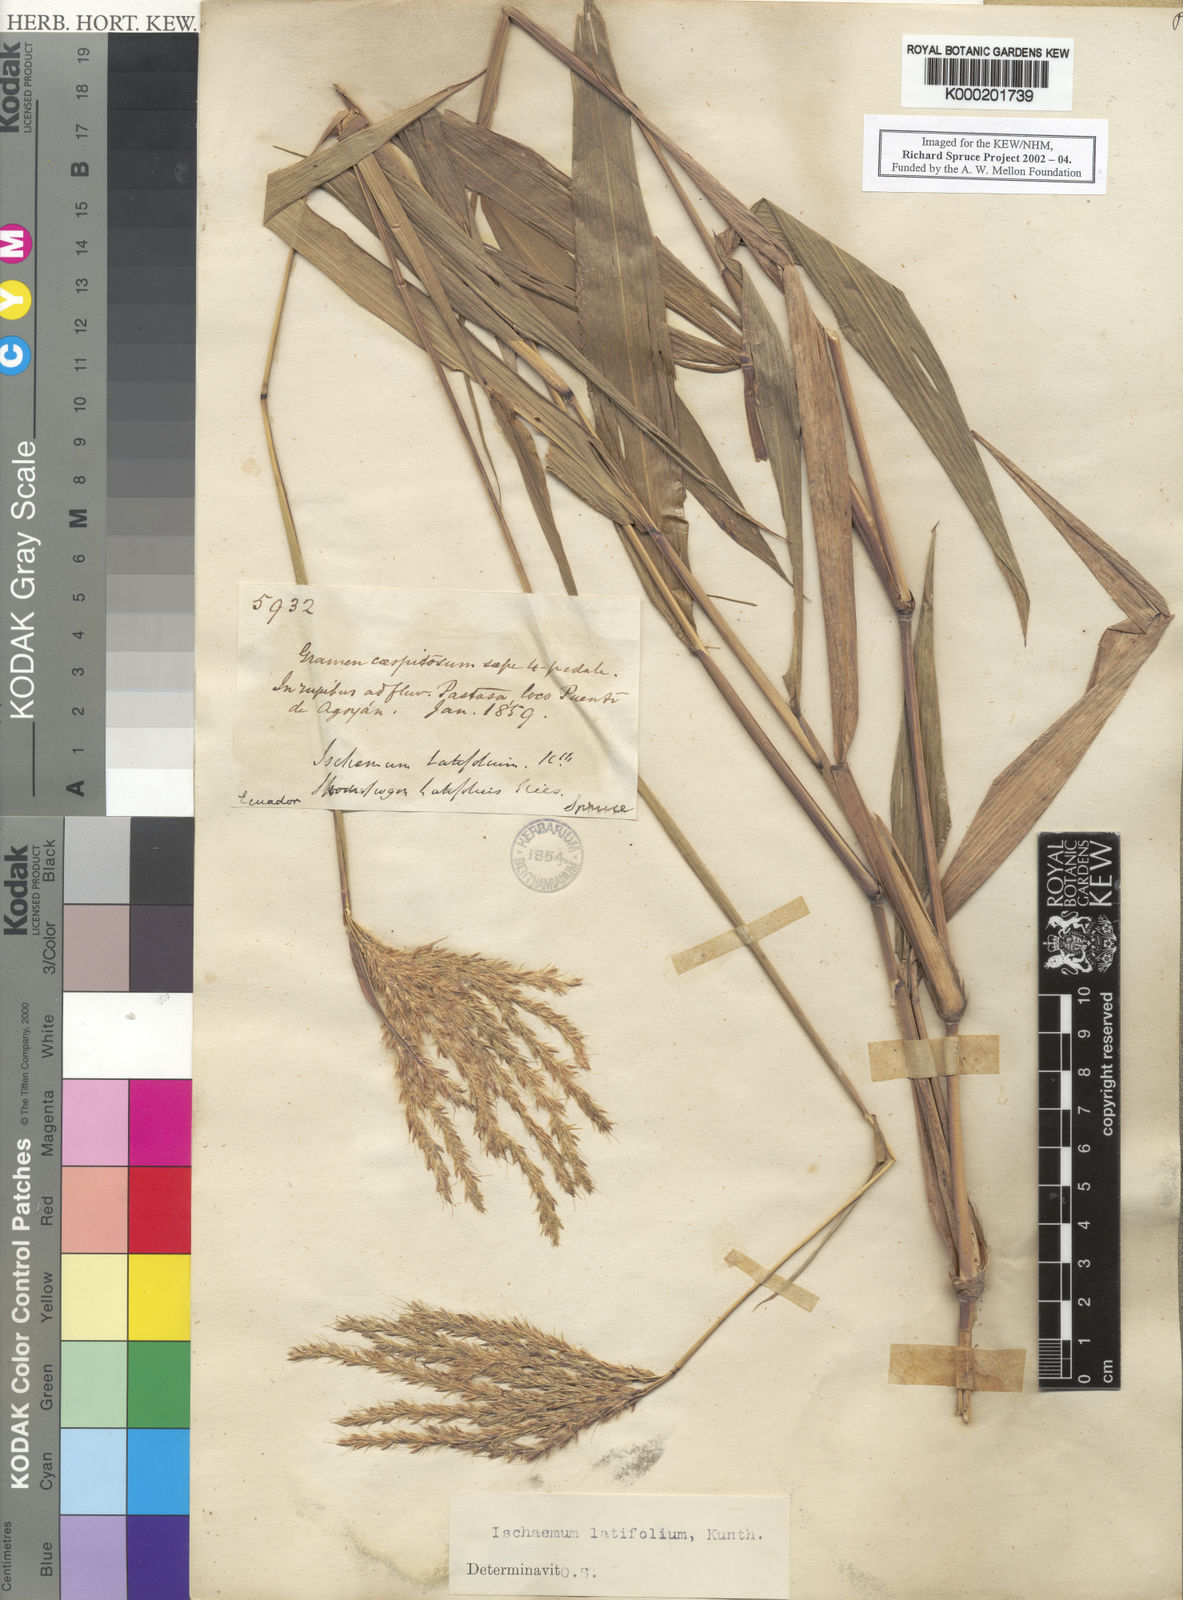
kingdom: Plantae
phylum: Tracheophyta
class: Liliopsida
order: Poales
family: Poaceae
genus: Ischaemum
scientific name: Ischaemum latifolium
